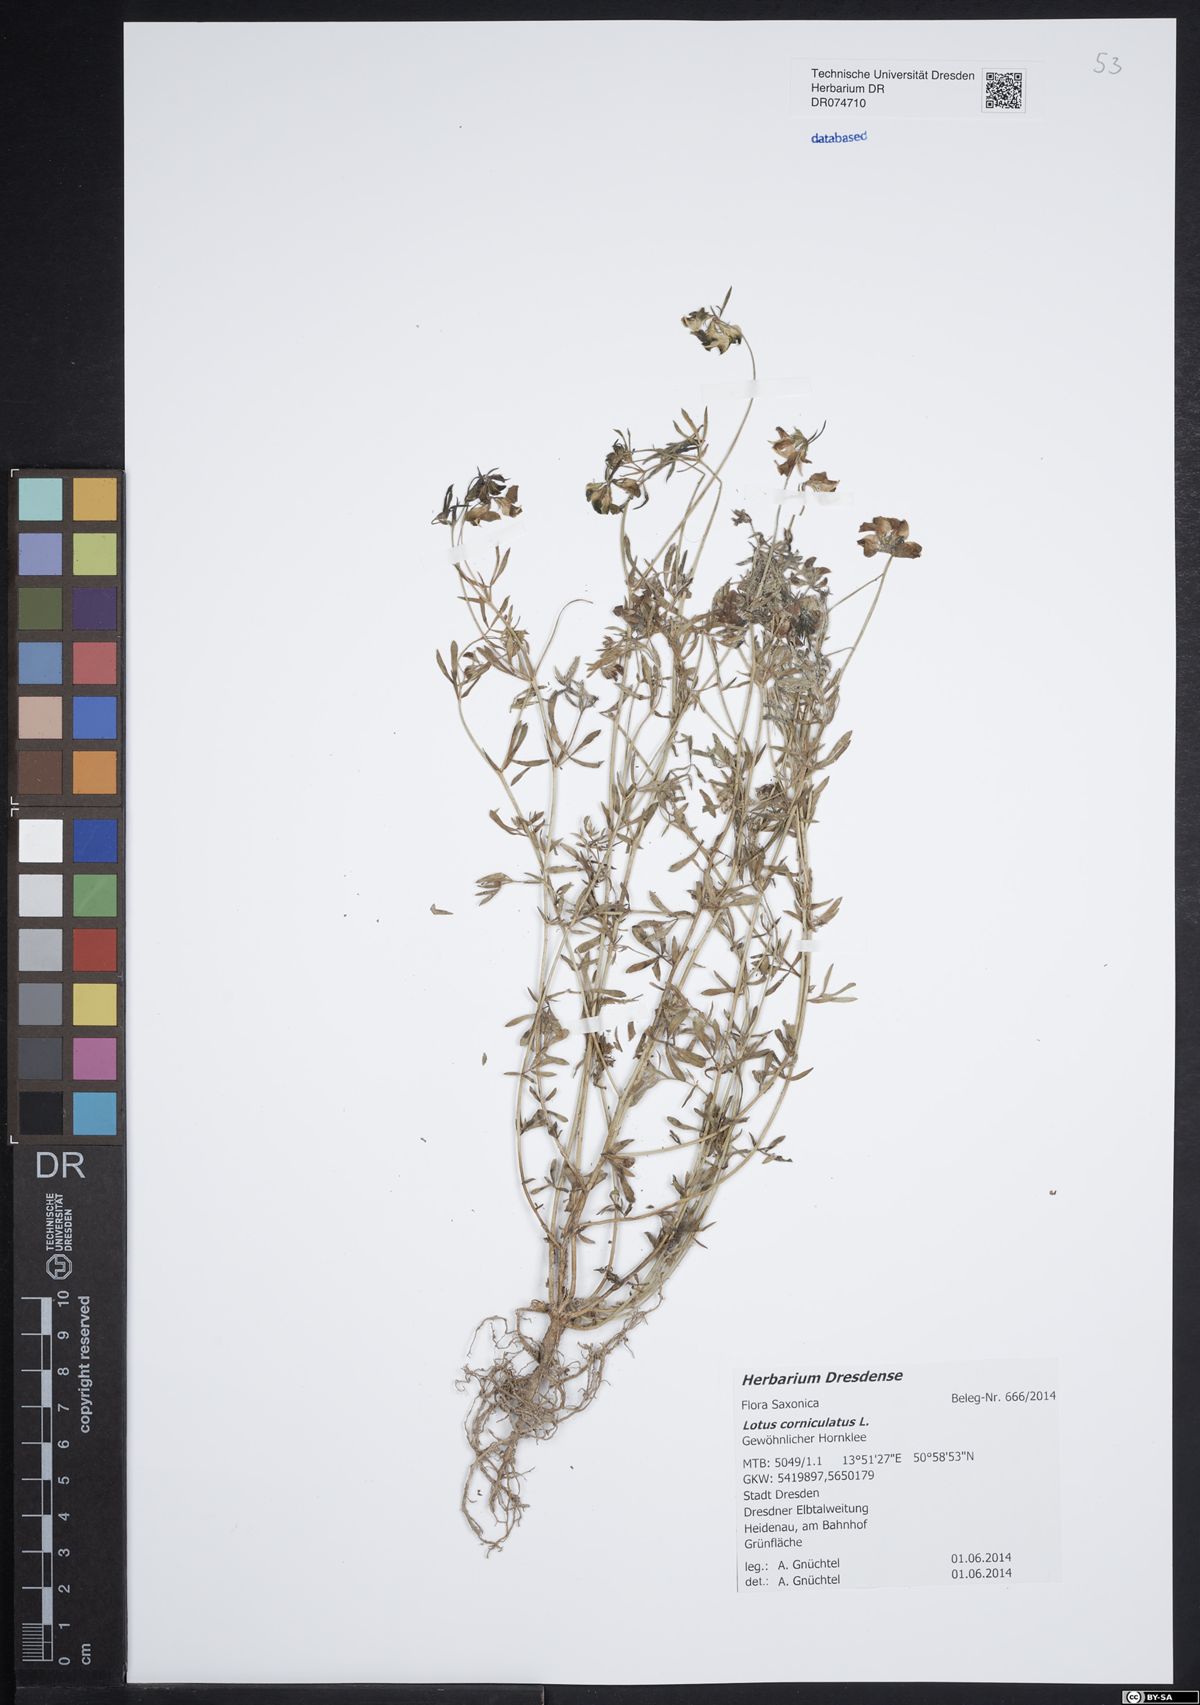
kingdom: Plantae
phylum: Tracheophyta
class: Magnoliopsida
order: Fabales
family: Fabaceae
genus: Lotus
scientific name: Lotus corniculatus
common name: Common bird's-foot-trefoil
